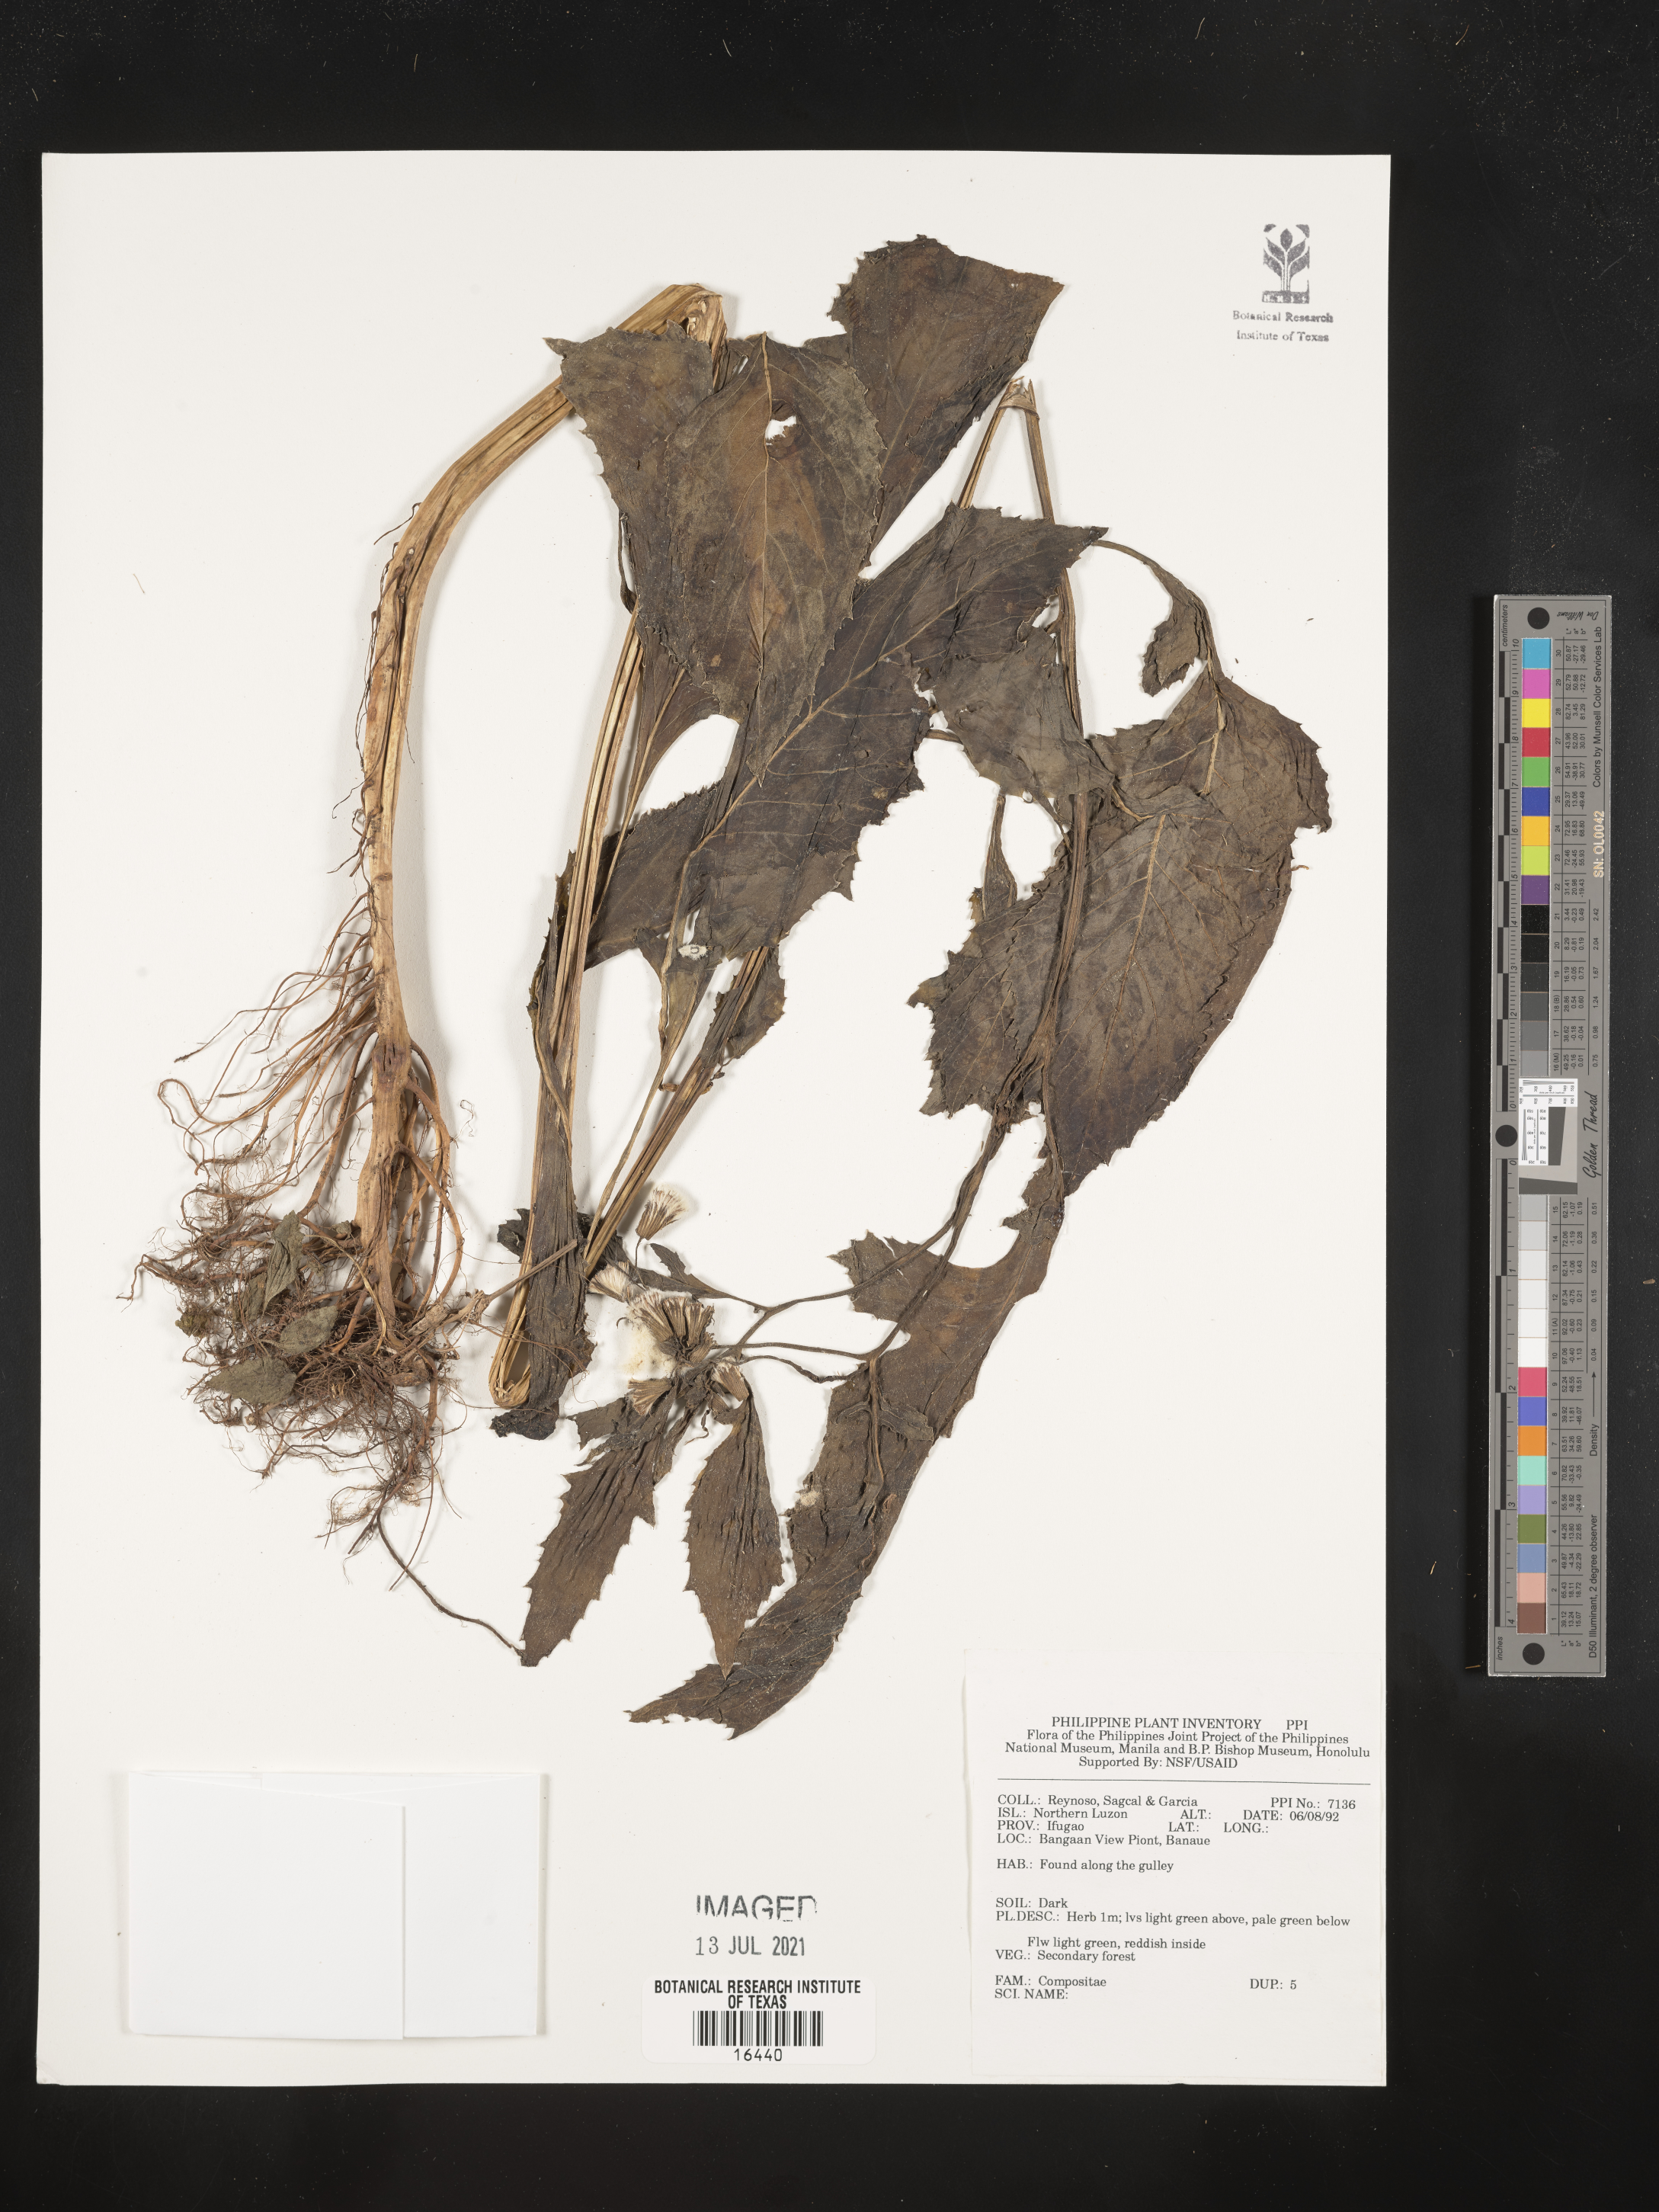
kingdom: Plantae
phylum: Tracheophyta
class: Magnoliopsida
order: Asterales
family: Asteraceae
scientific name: Asteraceae
